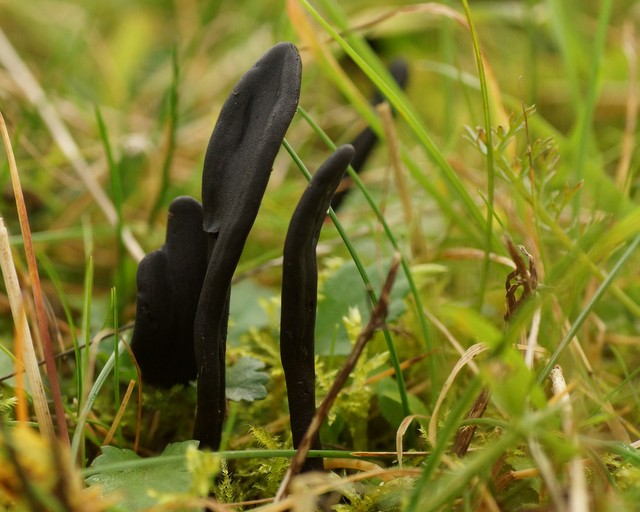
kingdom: Fungi
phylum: Ascomycota
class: Geoglossomycetes
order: Geoglossales
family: Geoglossaceae
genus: Geoglossum
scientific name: Geoglossum cookeianum
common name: bred jordtunge
